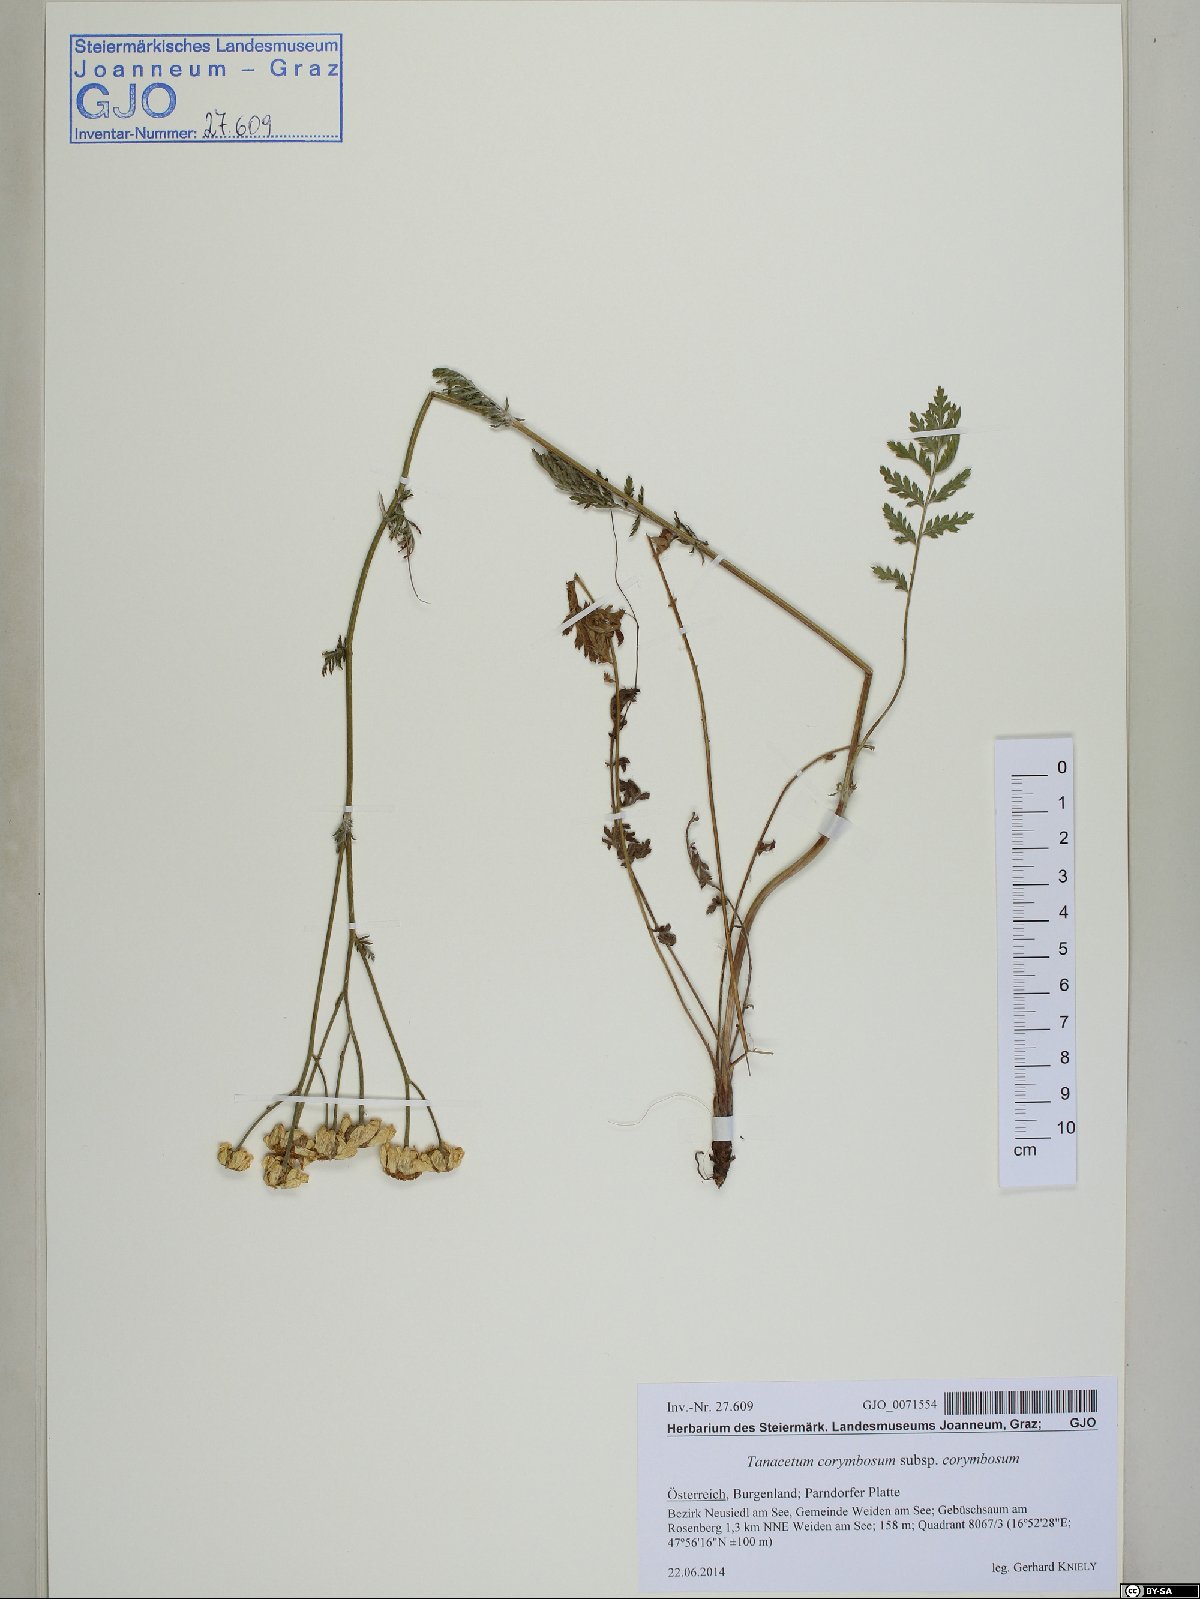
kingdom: Plantae
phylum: Tracheophyta
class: Magnoliopsida
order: Asterales
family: Asteraceae
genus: Tanacetum
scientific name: Tanacetum corymbosum
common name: Scentless feverfew
